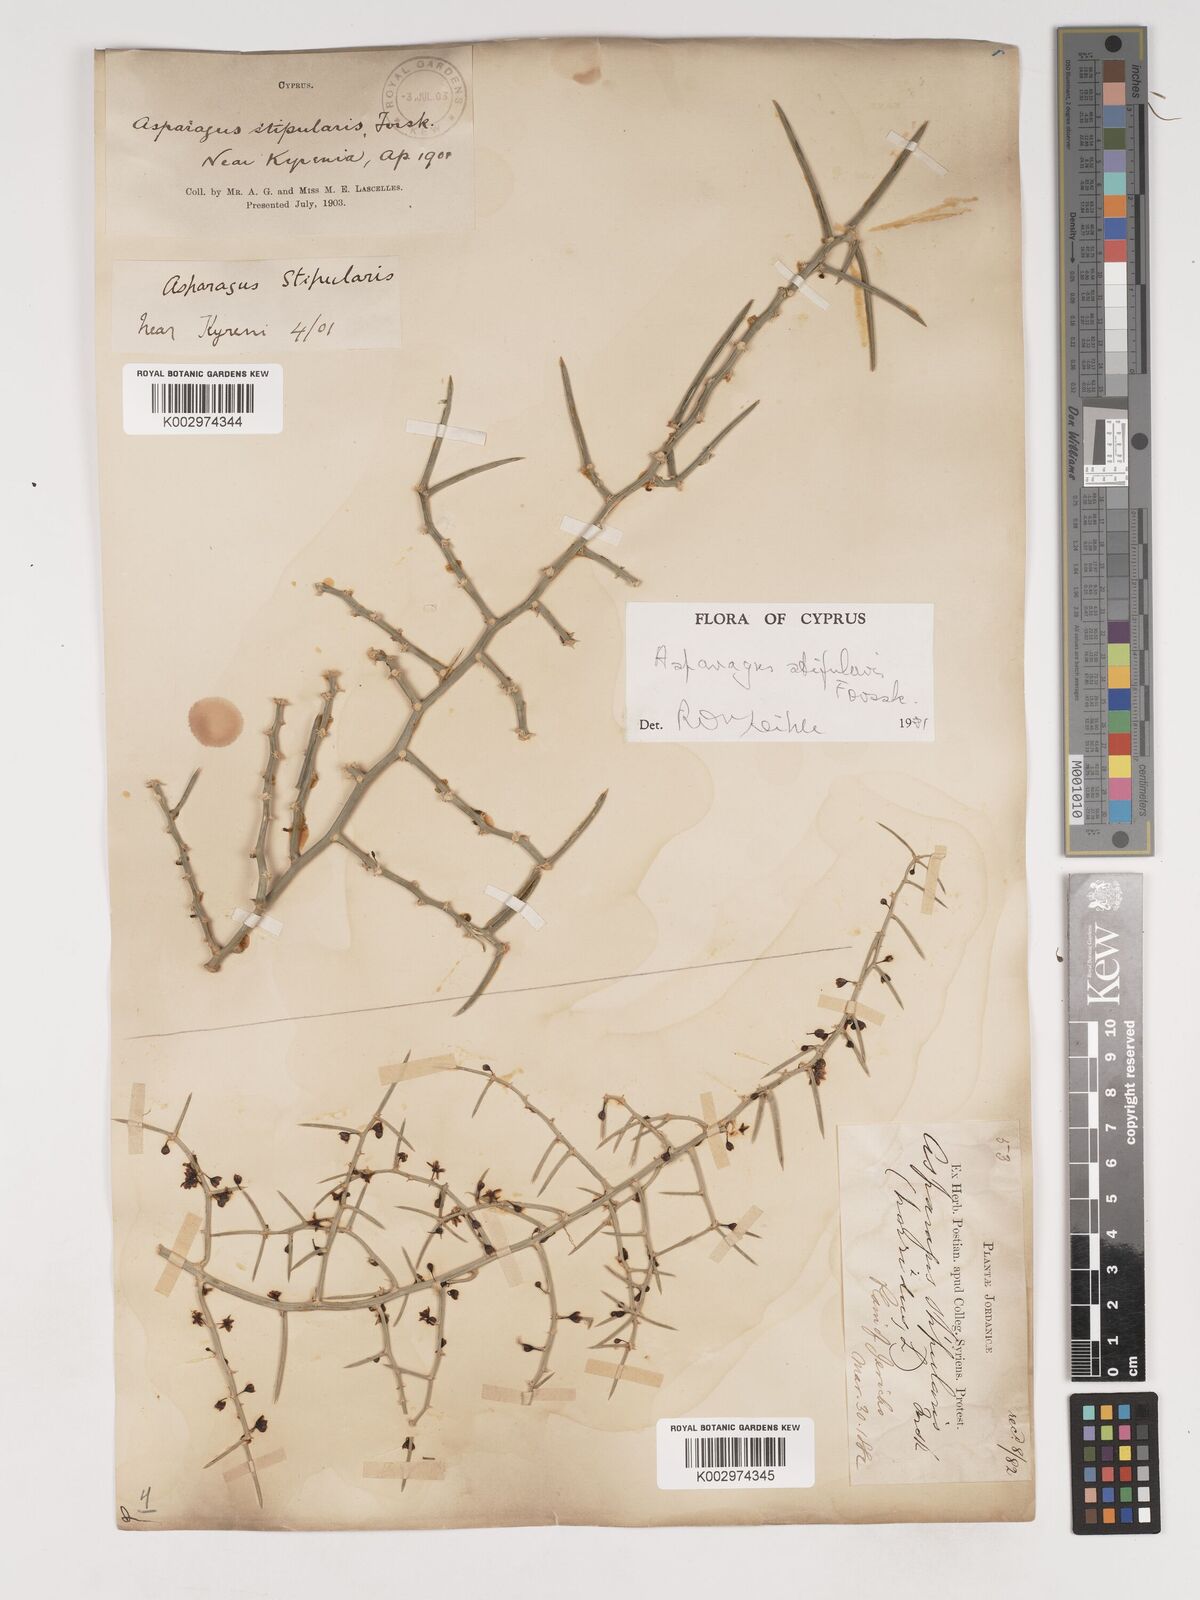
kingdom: Plantae
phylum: Tracheophyta
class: Liliopsida
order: Asparagales
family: Asparagaceae
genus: Asparagus
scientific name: Asparagus horridus
